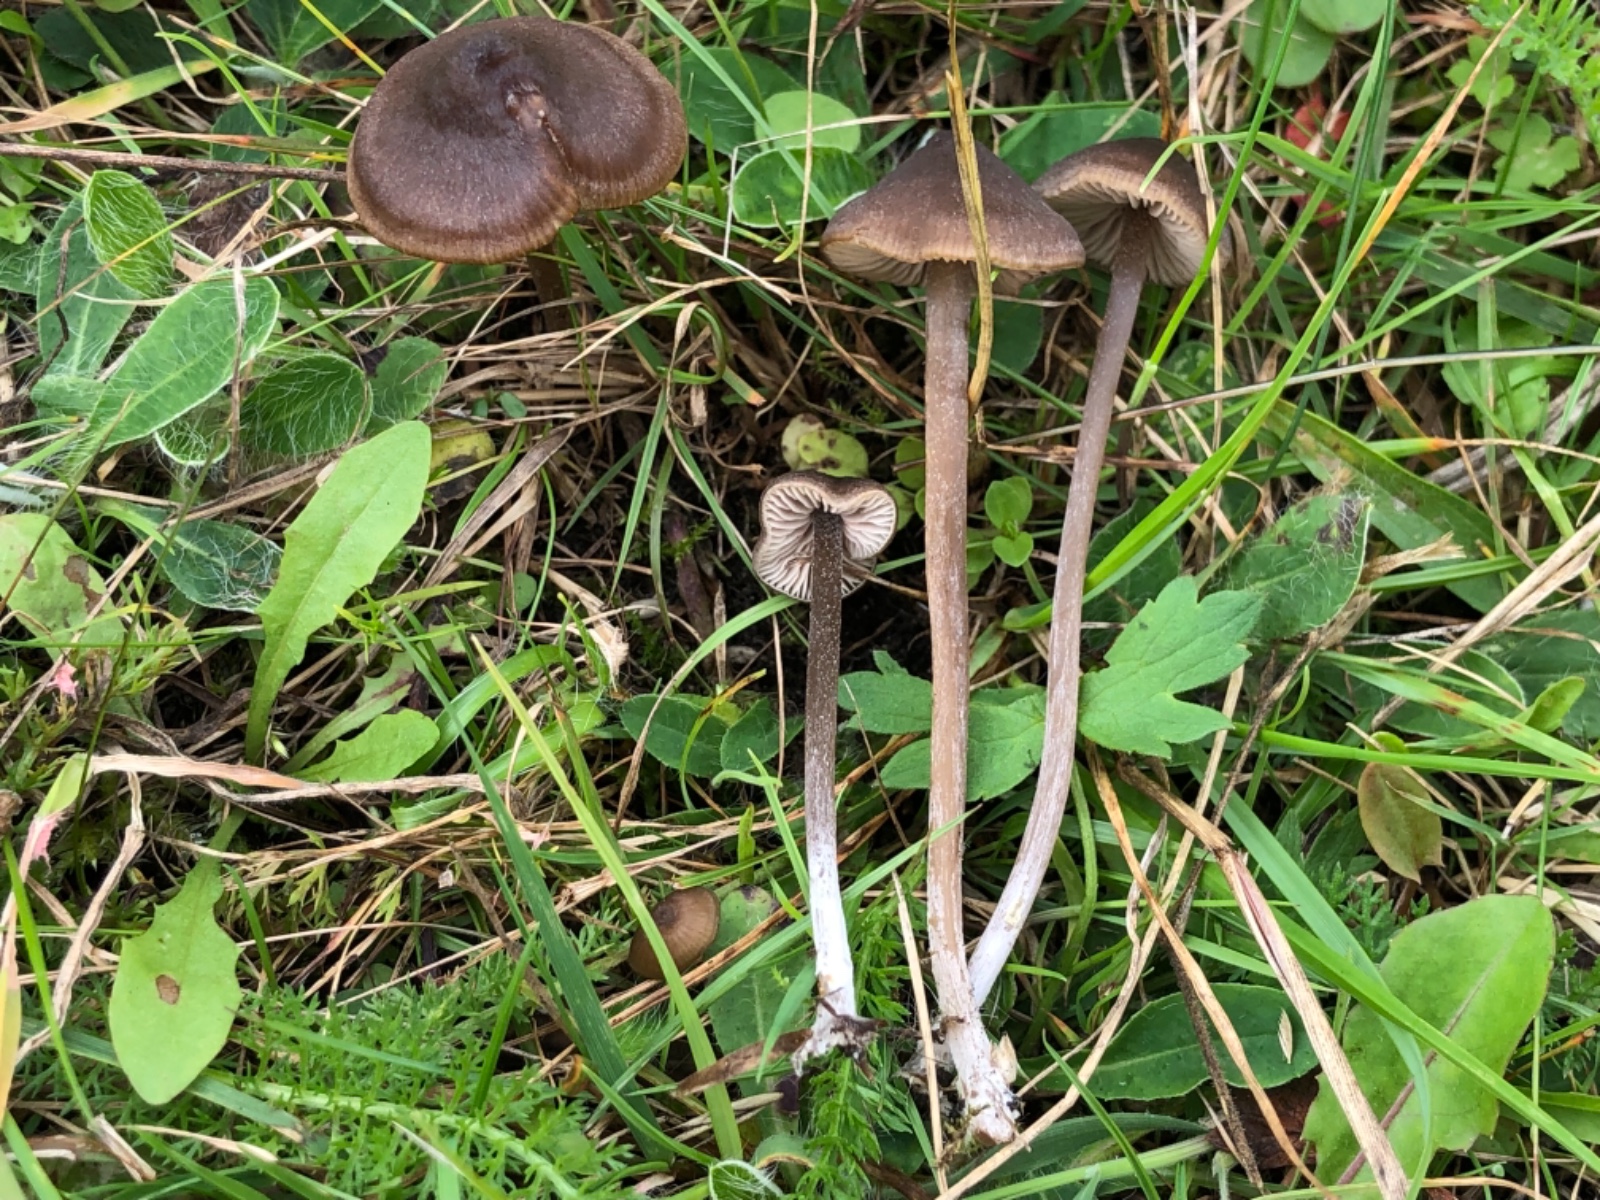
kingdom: Fungi
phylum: Basidiomycota
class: Agaricomycetes
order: Agaricales
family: Entolomataceae
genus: Entoloma
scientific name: Entoloma clandestinum
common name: tykbladet rødblad
